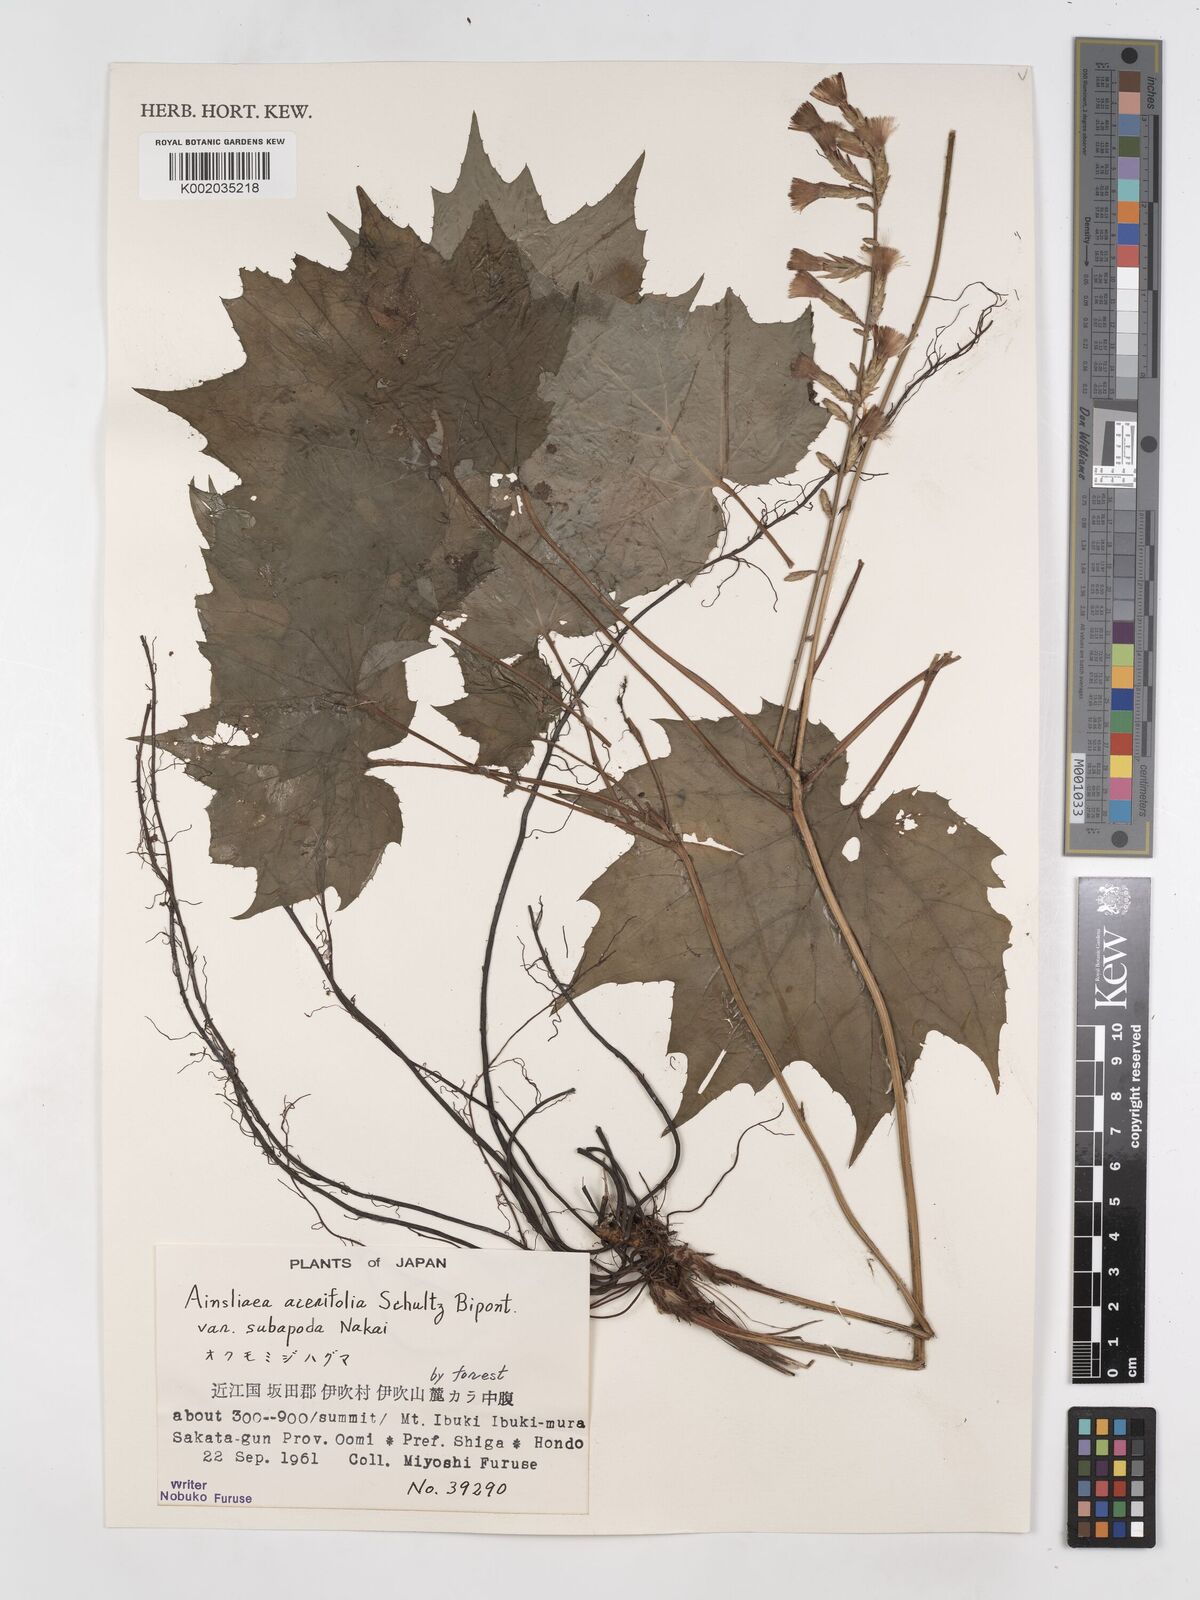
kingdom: Plantae
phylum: Tracheophyta
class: Magnoliopsida
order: Asterales
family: Asteraceae
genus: Ainsliaea
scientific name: Ainsliaea acerifolia
